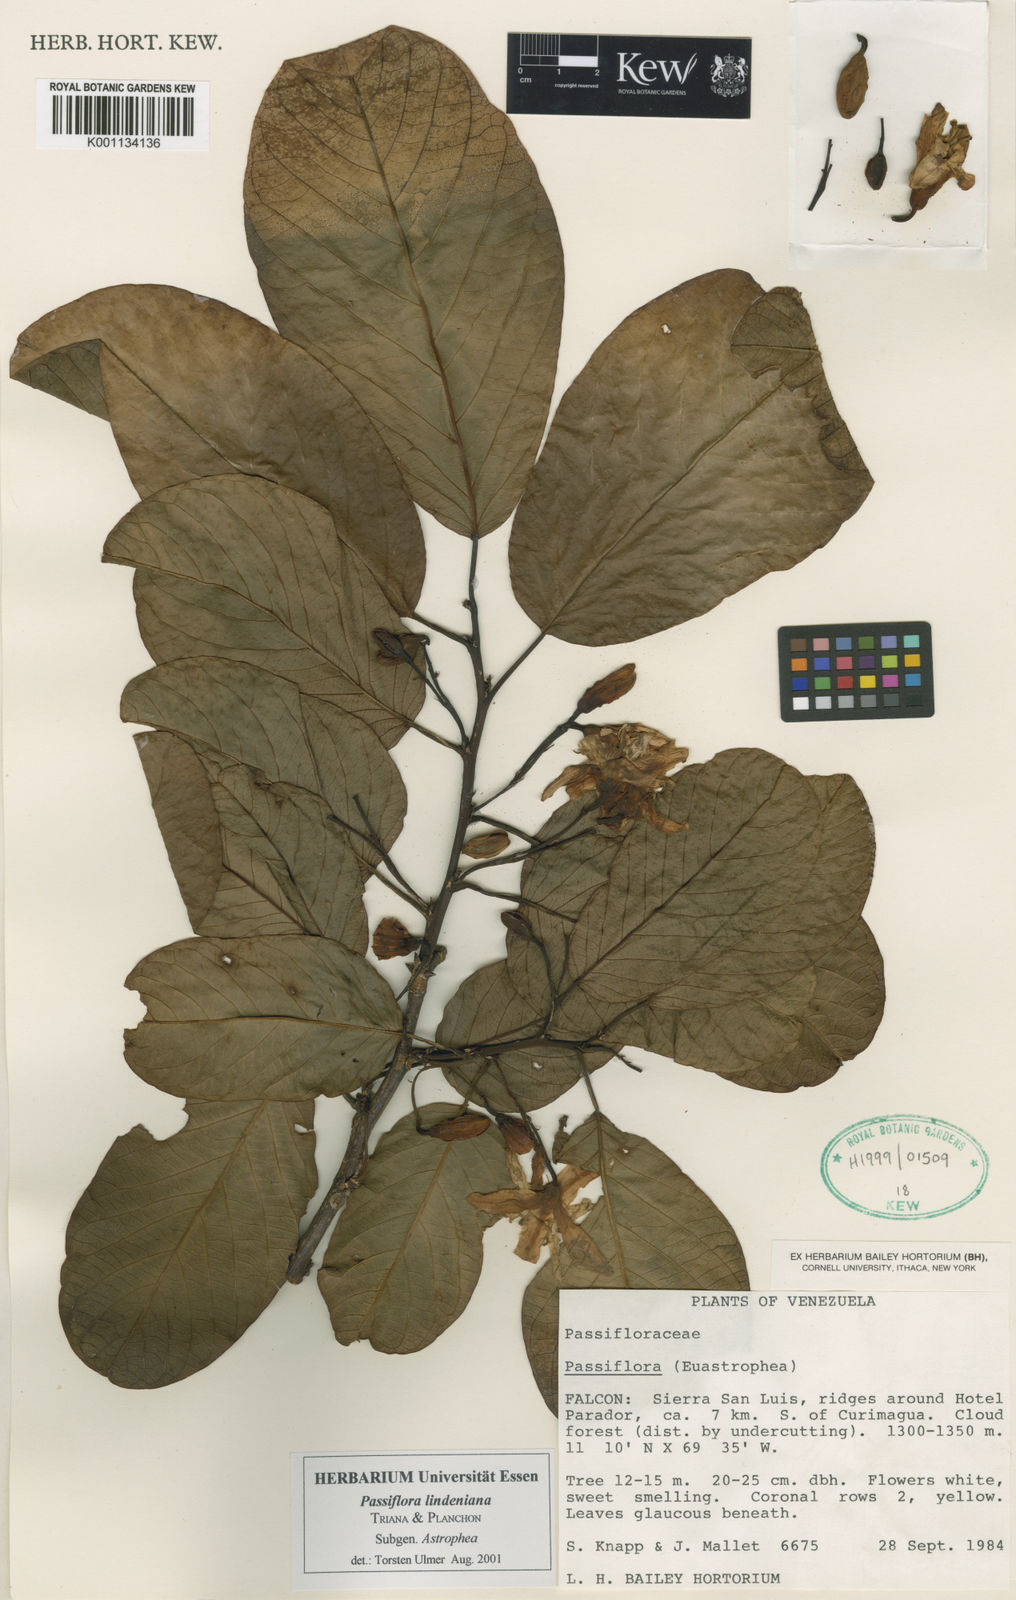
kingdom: Plantae
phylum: Tracheophyta
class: Magnoliopsida
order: Malpighiales
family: Passifloraceae
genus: Passiflora
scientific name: Passiflora lindeniana
